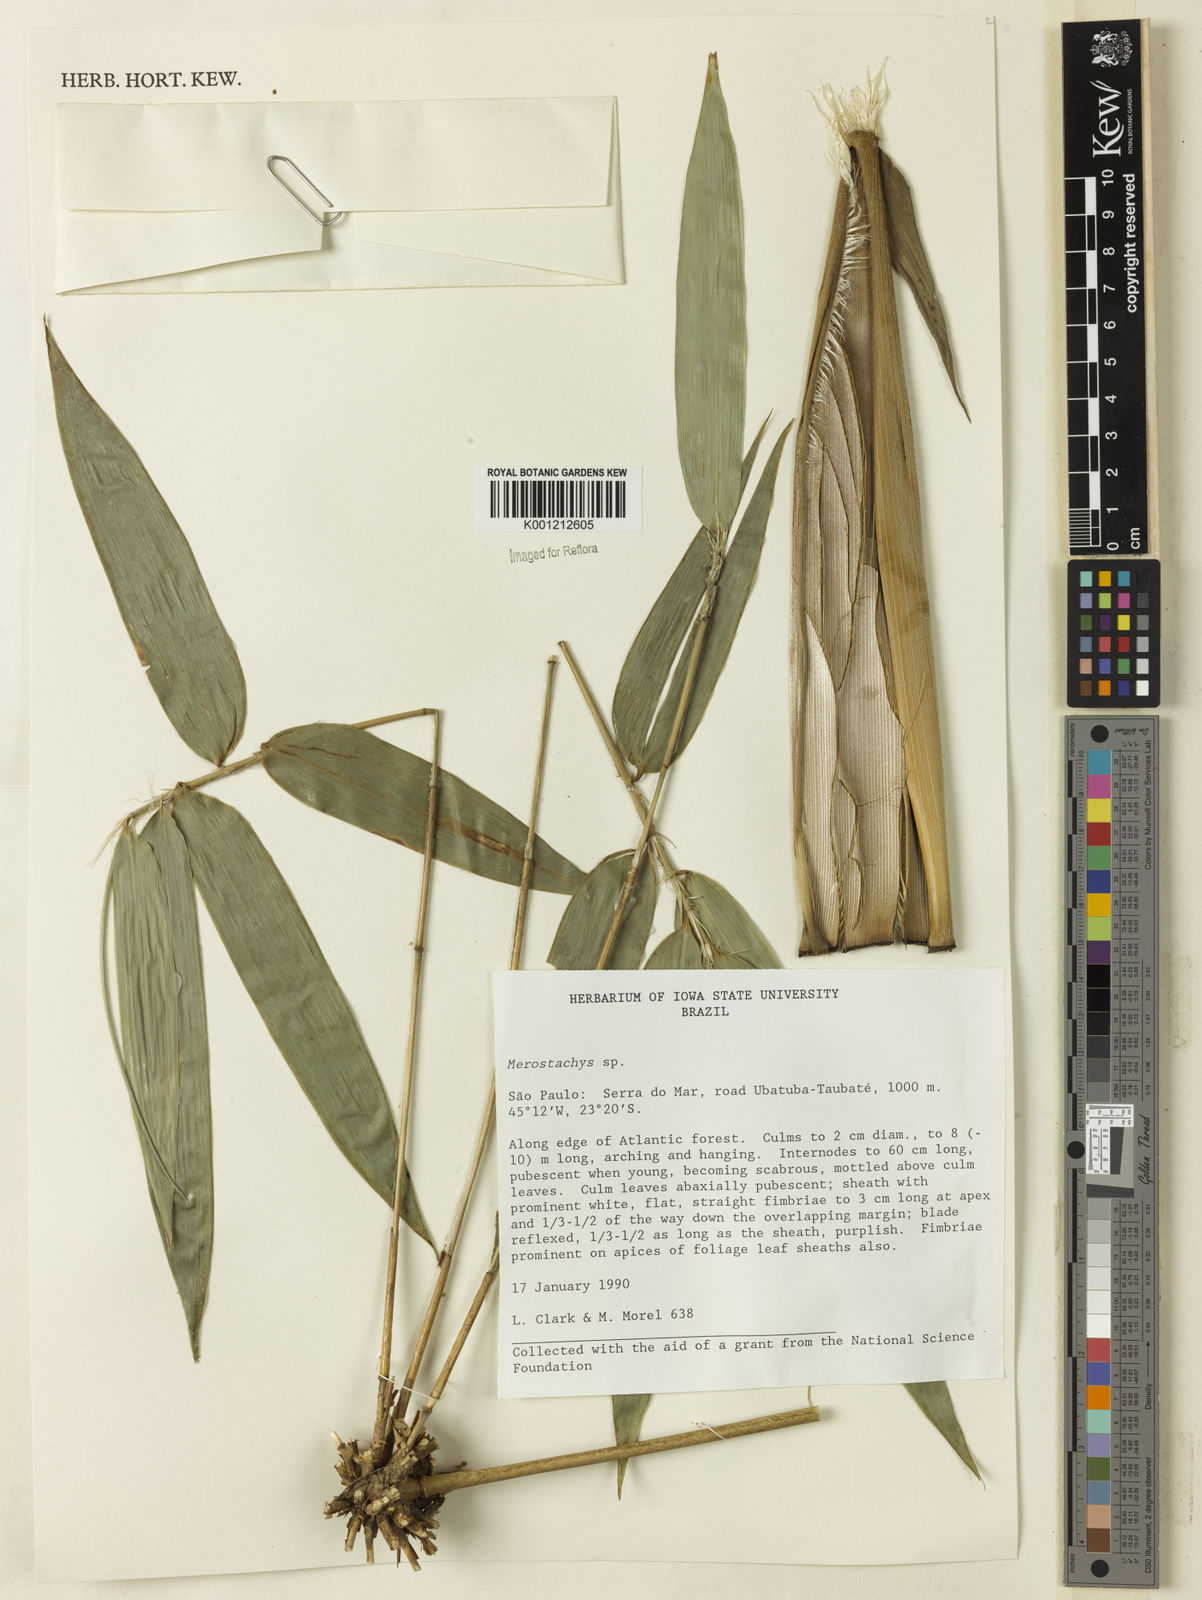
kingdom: Plantae
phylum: Tracheophyta
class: Liliopsida
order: Poales
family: Poaceae
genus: Merostachys
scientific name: Merostachys
